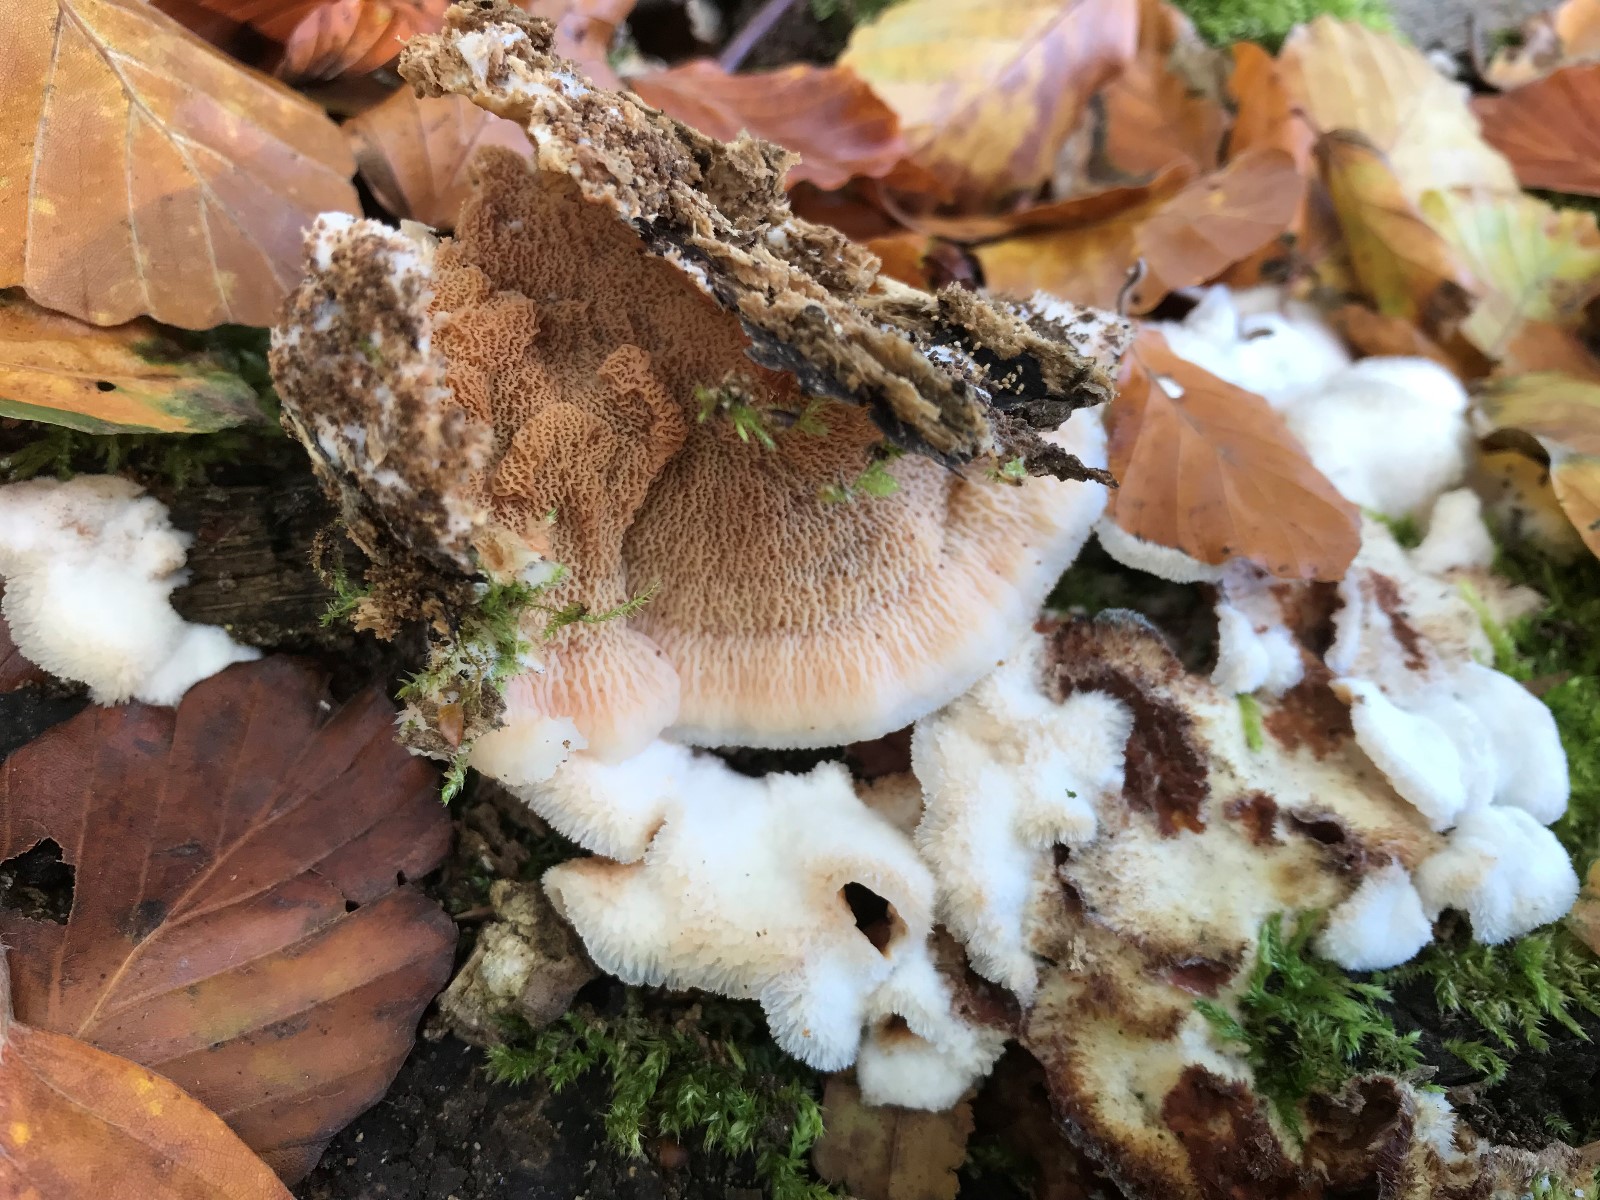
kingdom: Fungi
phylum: Basidiomycota
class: Agaricomycetes
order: Polyporales
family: Meruliaceae
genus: Phlebia
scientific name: Phlebia tremellosa
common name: bævrende åresvamp
